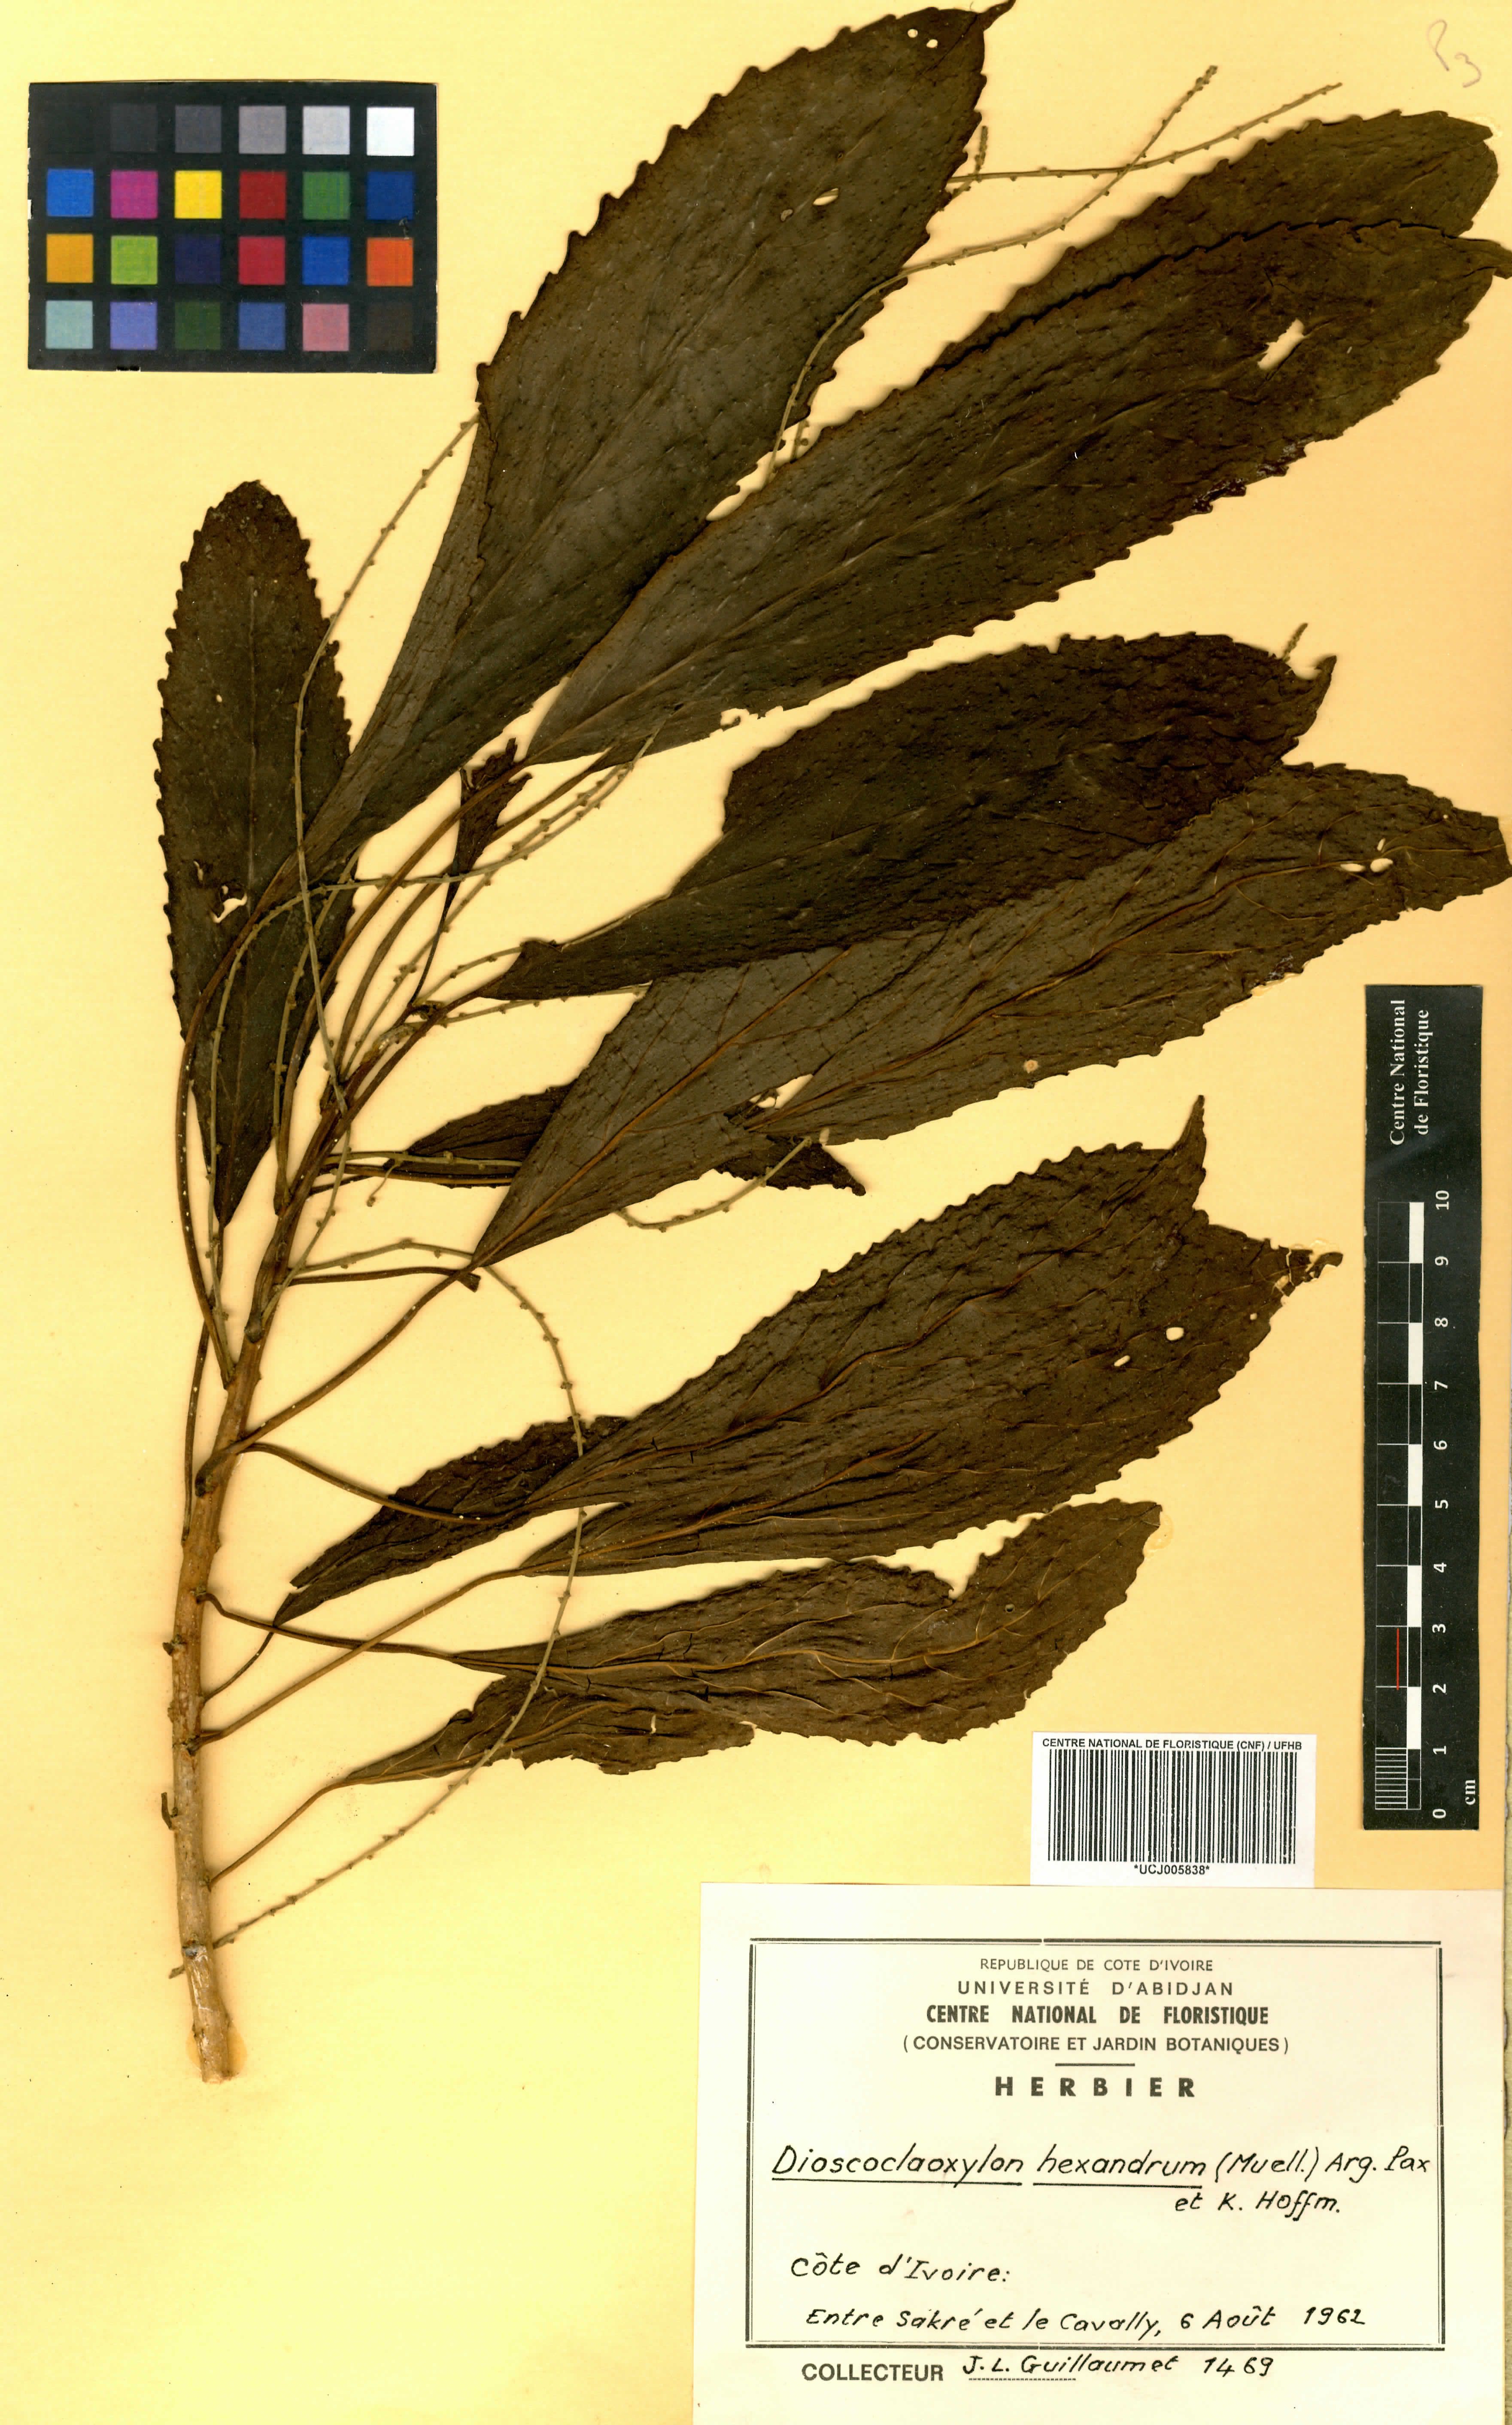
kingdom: Plantae
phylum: Tracheophyta
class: Magnoliopsida
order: Malpighiales
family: Euphorbiaceae
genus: Discoclaoxylon
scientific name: Discoclaoxylon hexandrum
